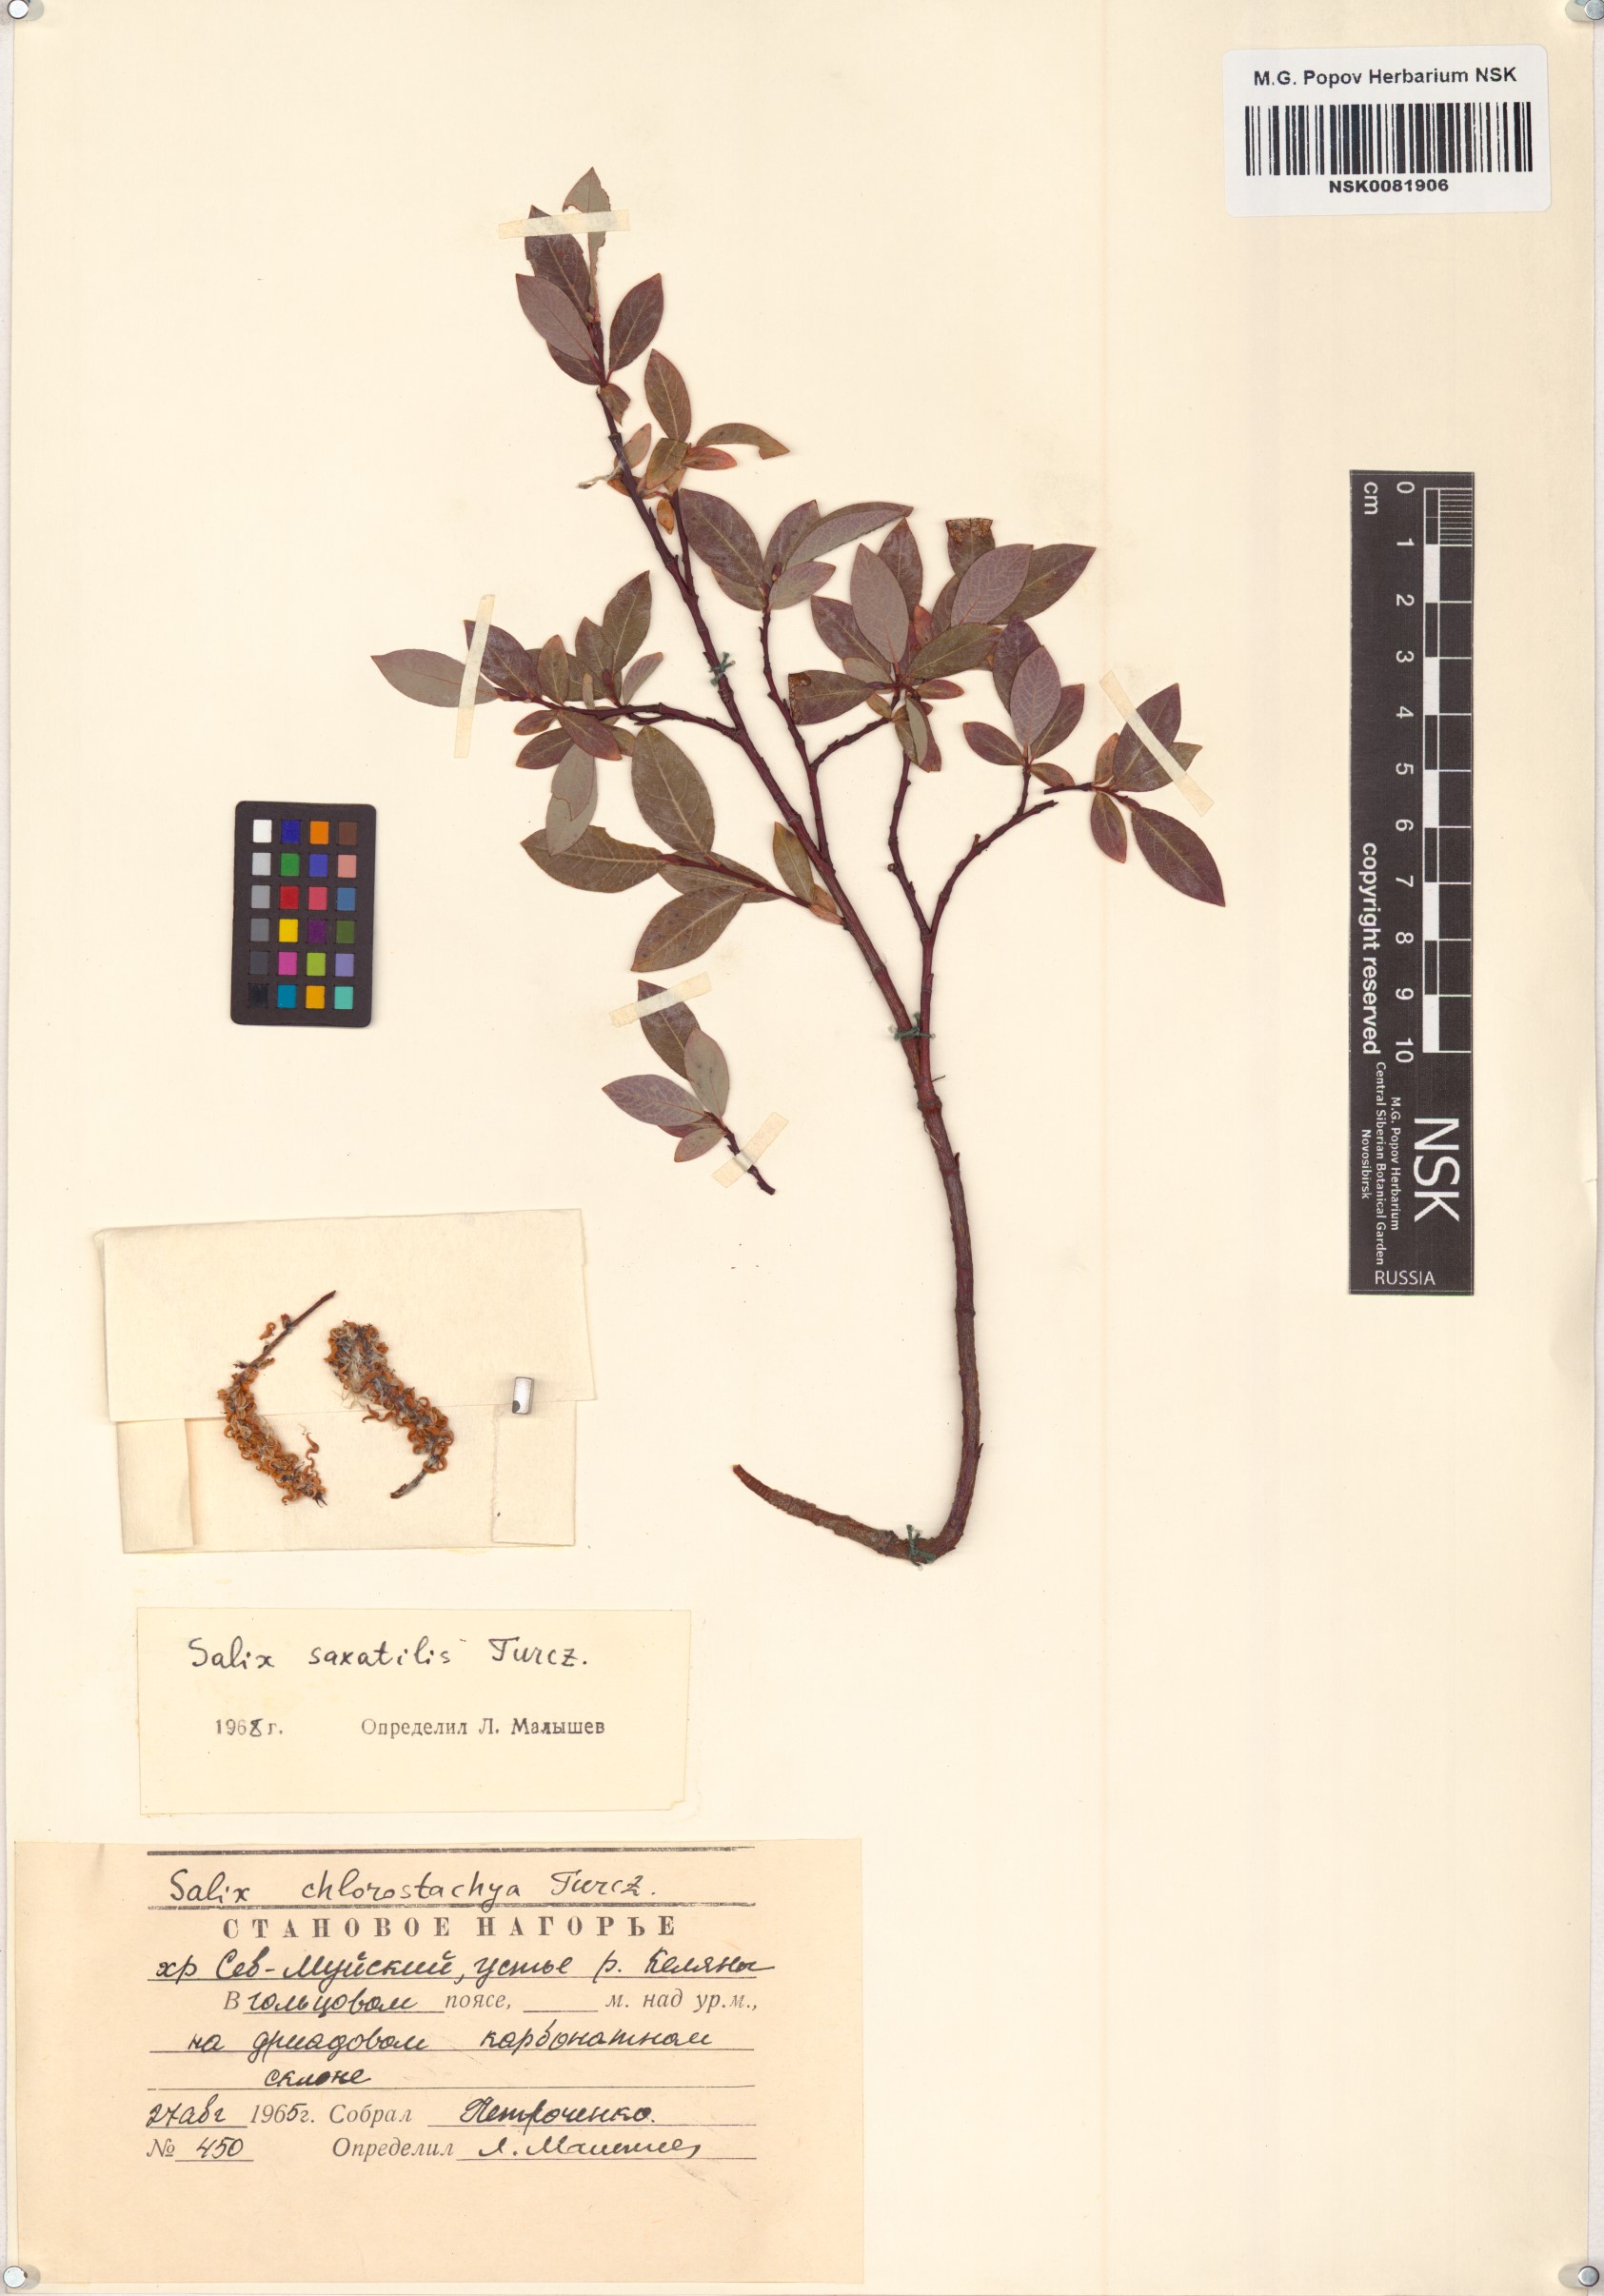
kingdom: Plantae
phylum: Tracheophyta
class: Magnoliopsida
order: Malpighiales
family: Salicaceae
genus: Salix
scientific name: Salix saxatilis
